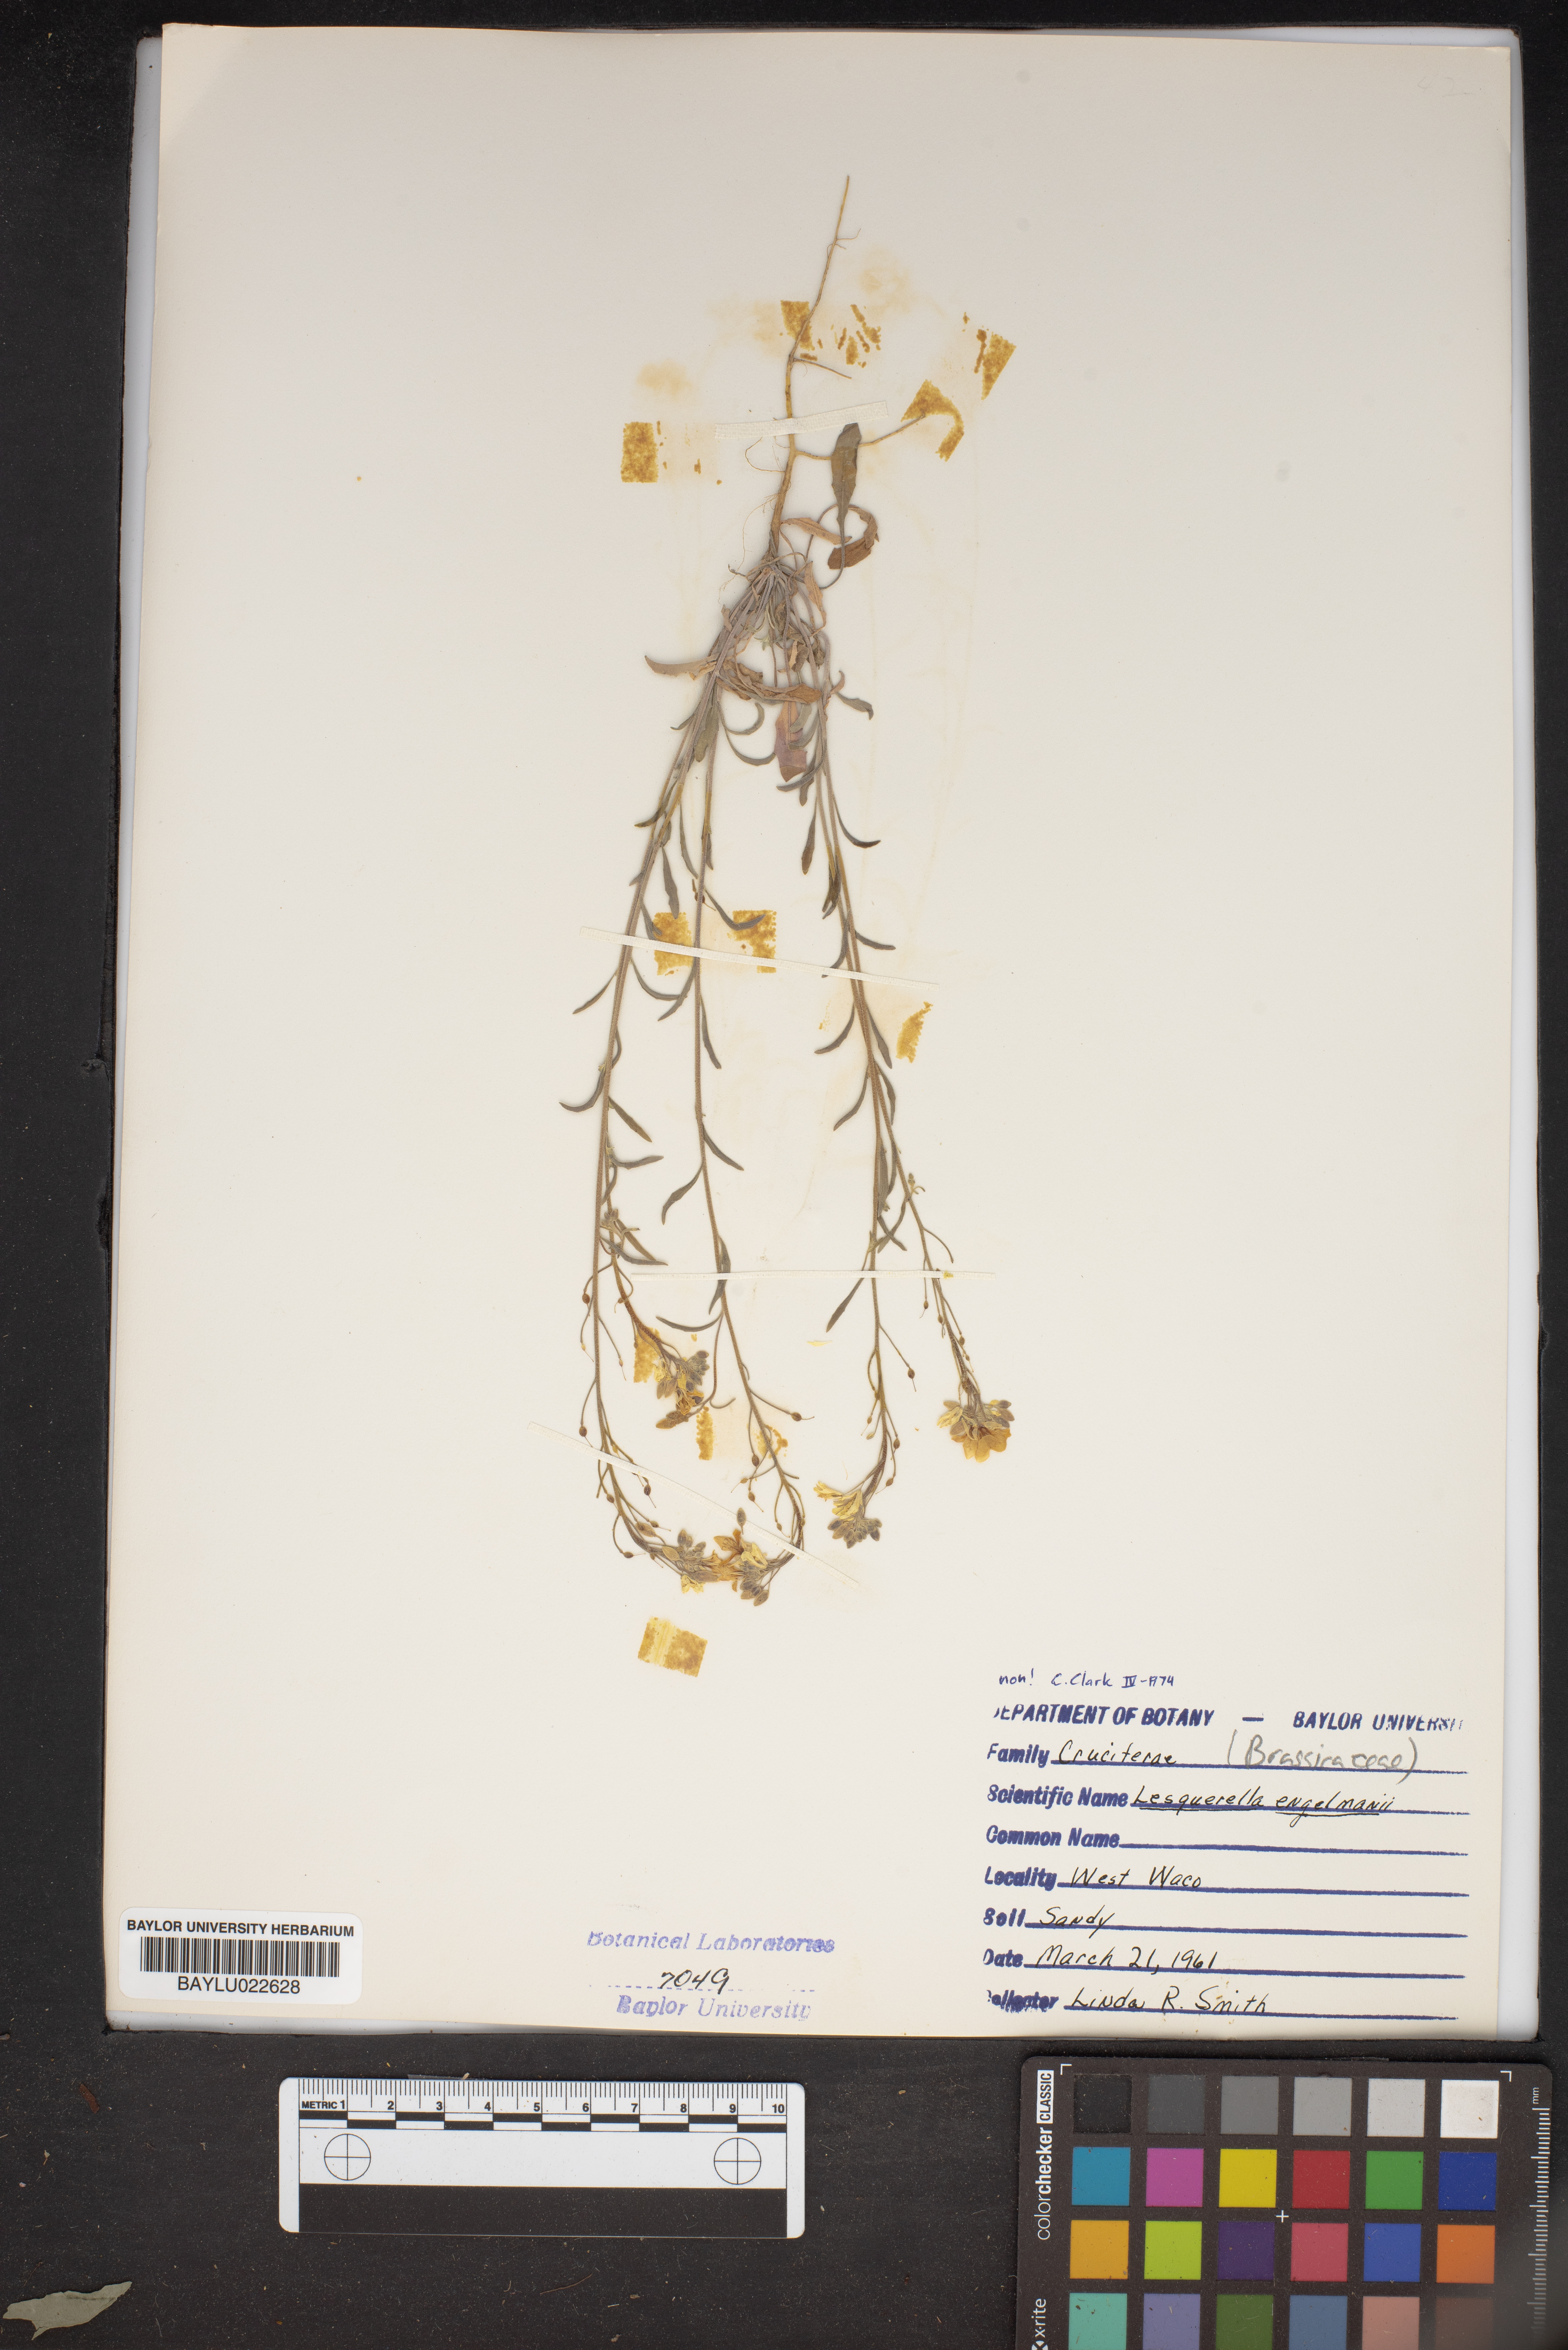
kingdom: Plantae
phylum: Tracheophyta
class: Magnoliopsida
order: Brassicales
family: Brassicaceae
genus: Physaria
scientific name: Physaria engelmannii
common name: Engelmann's bladderpod
